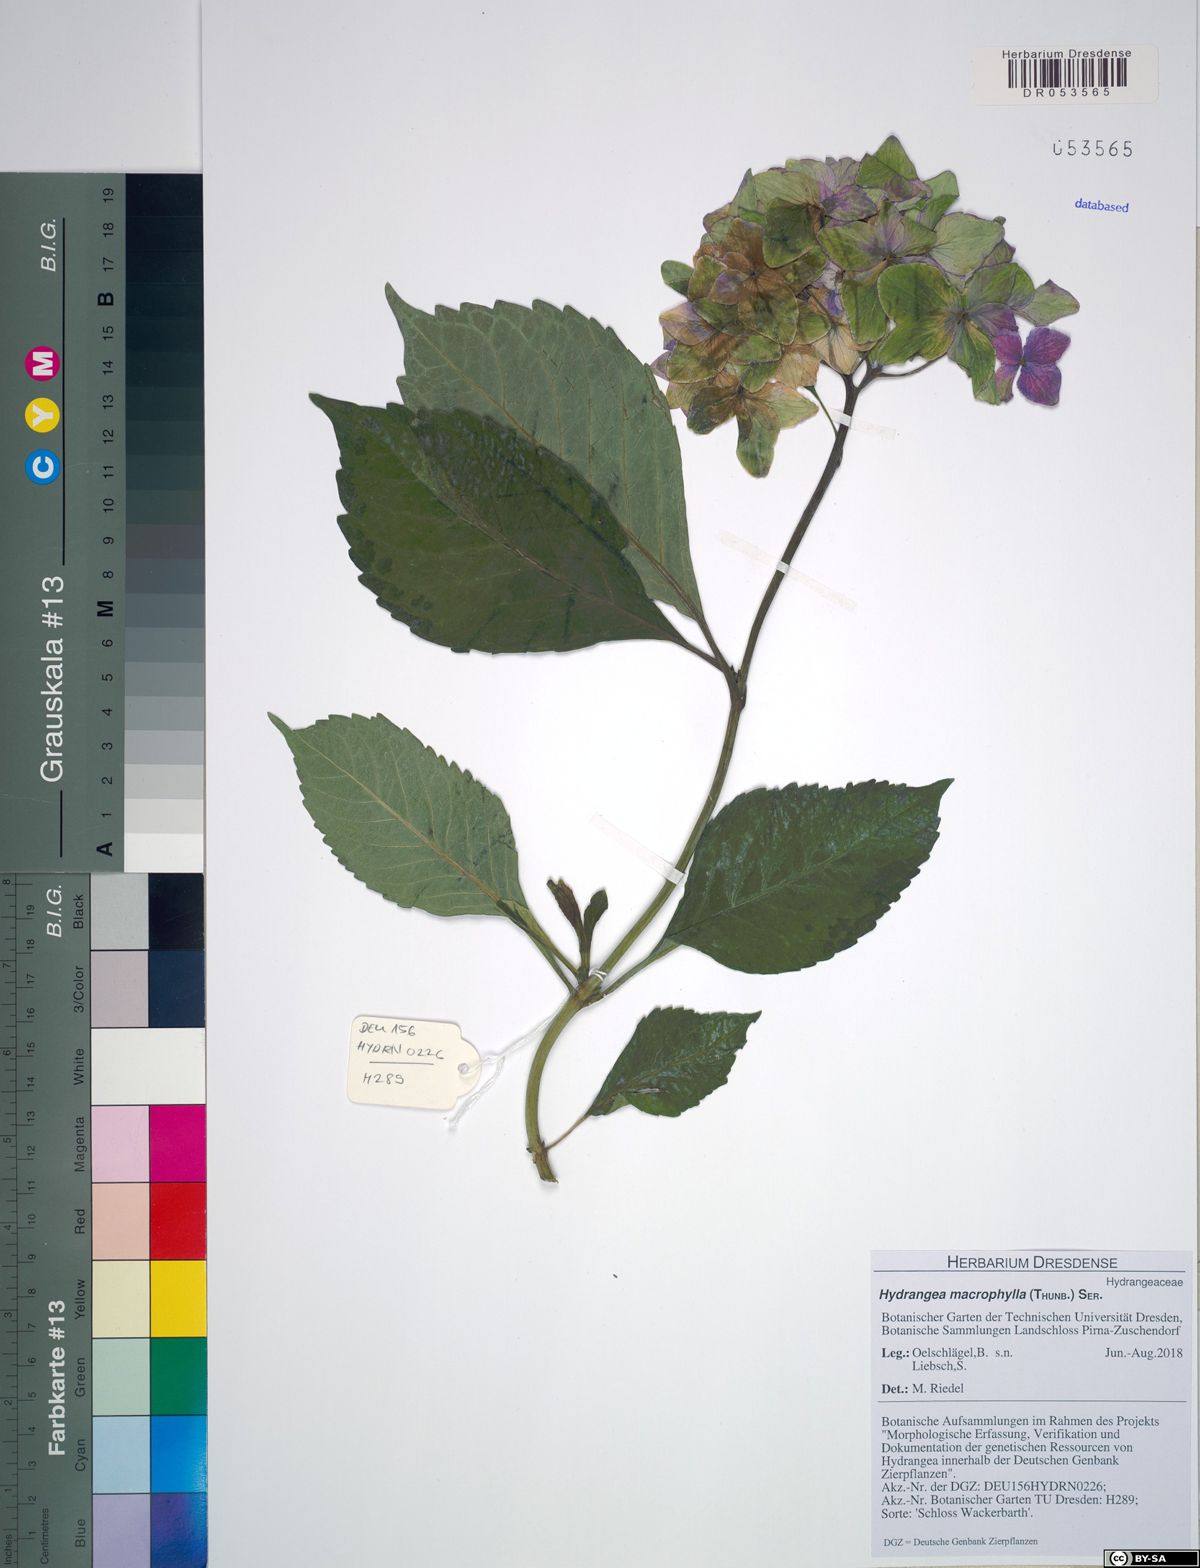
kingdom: Plantae
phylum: Tracheophyta
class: Magnoliopsida
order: Cornales
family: Hydrangeaceae
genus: Hydrangea
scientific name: Hydrangea macrophylla
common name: Hydrangea
